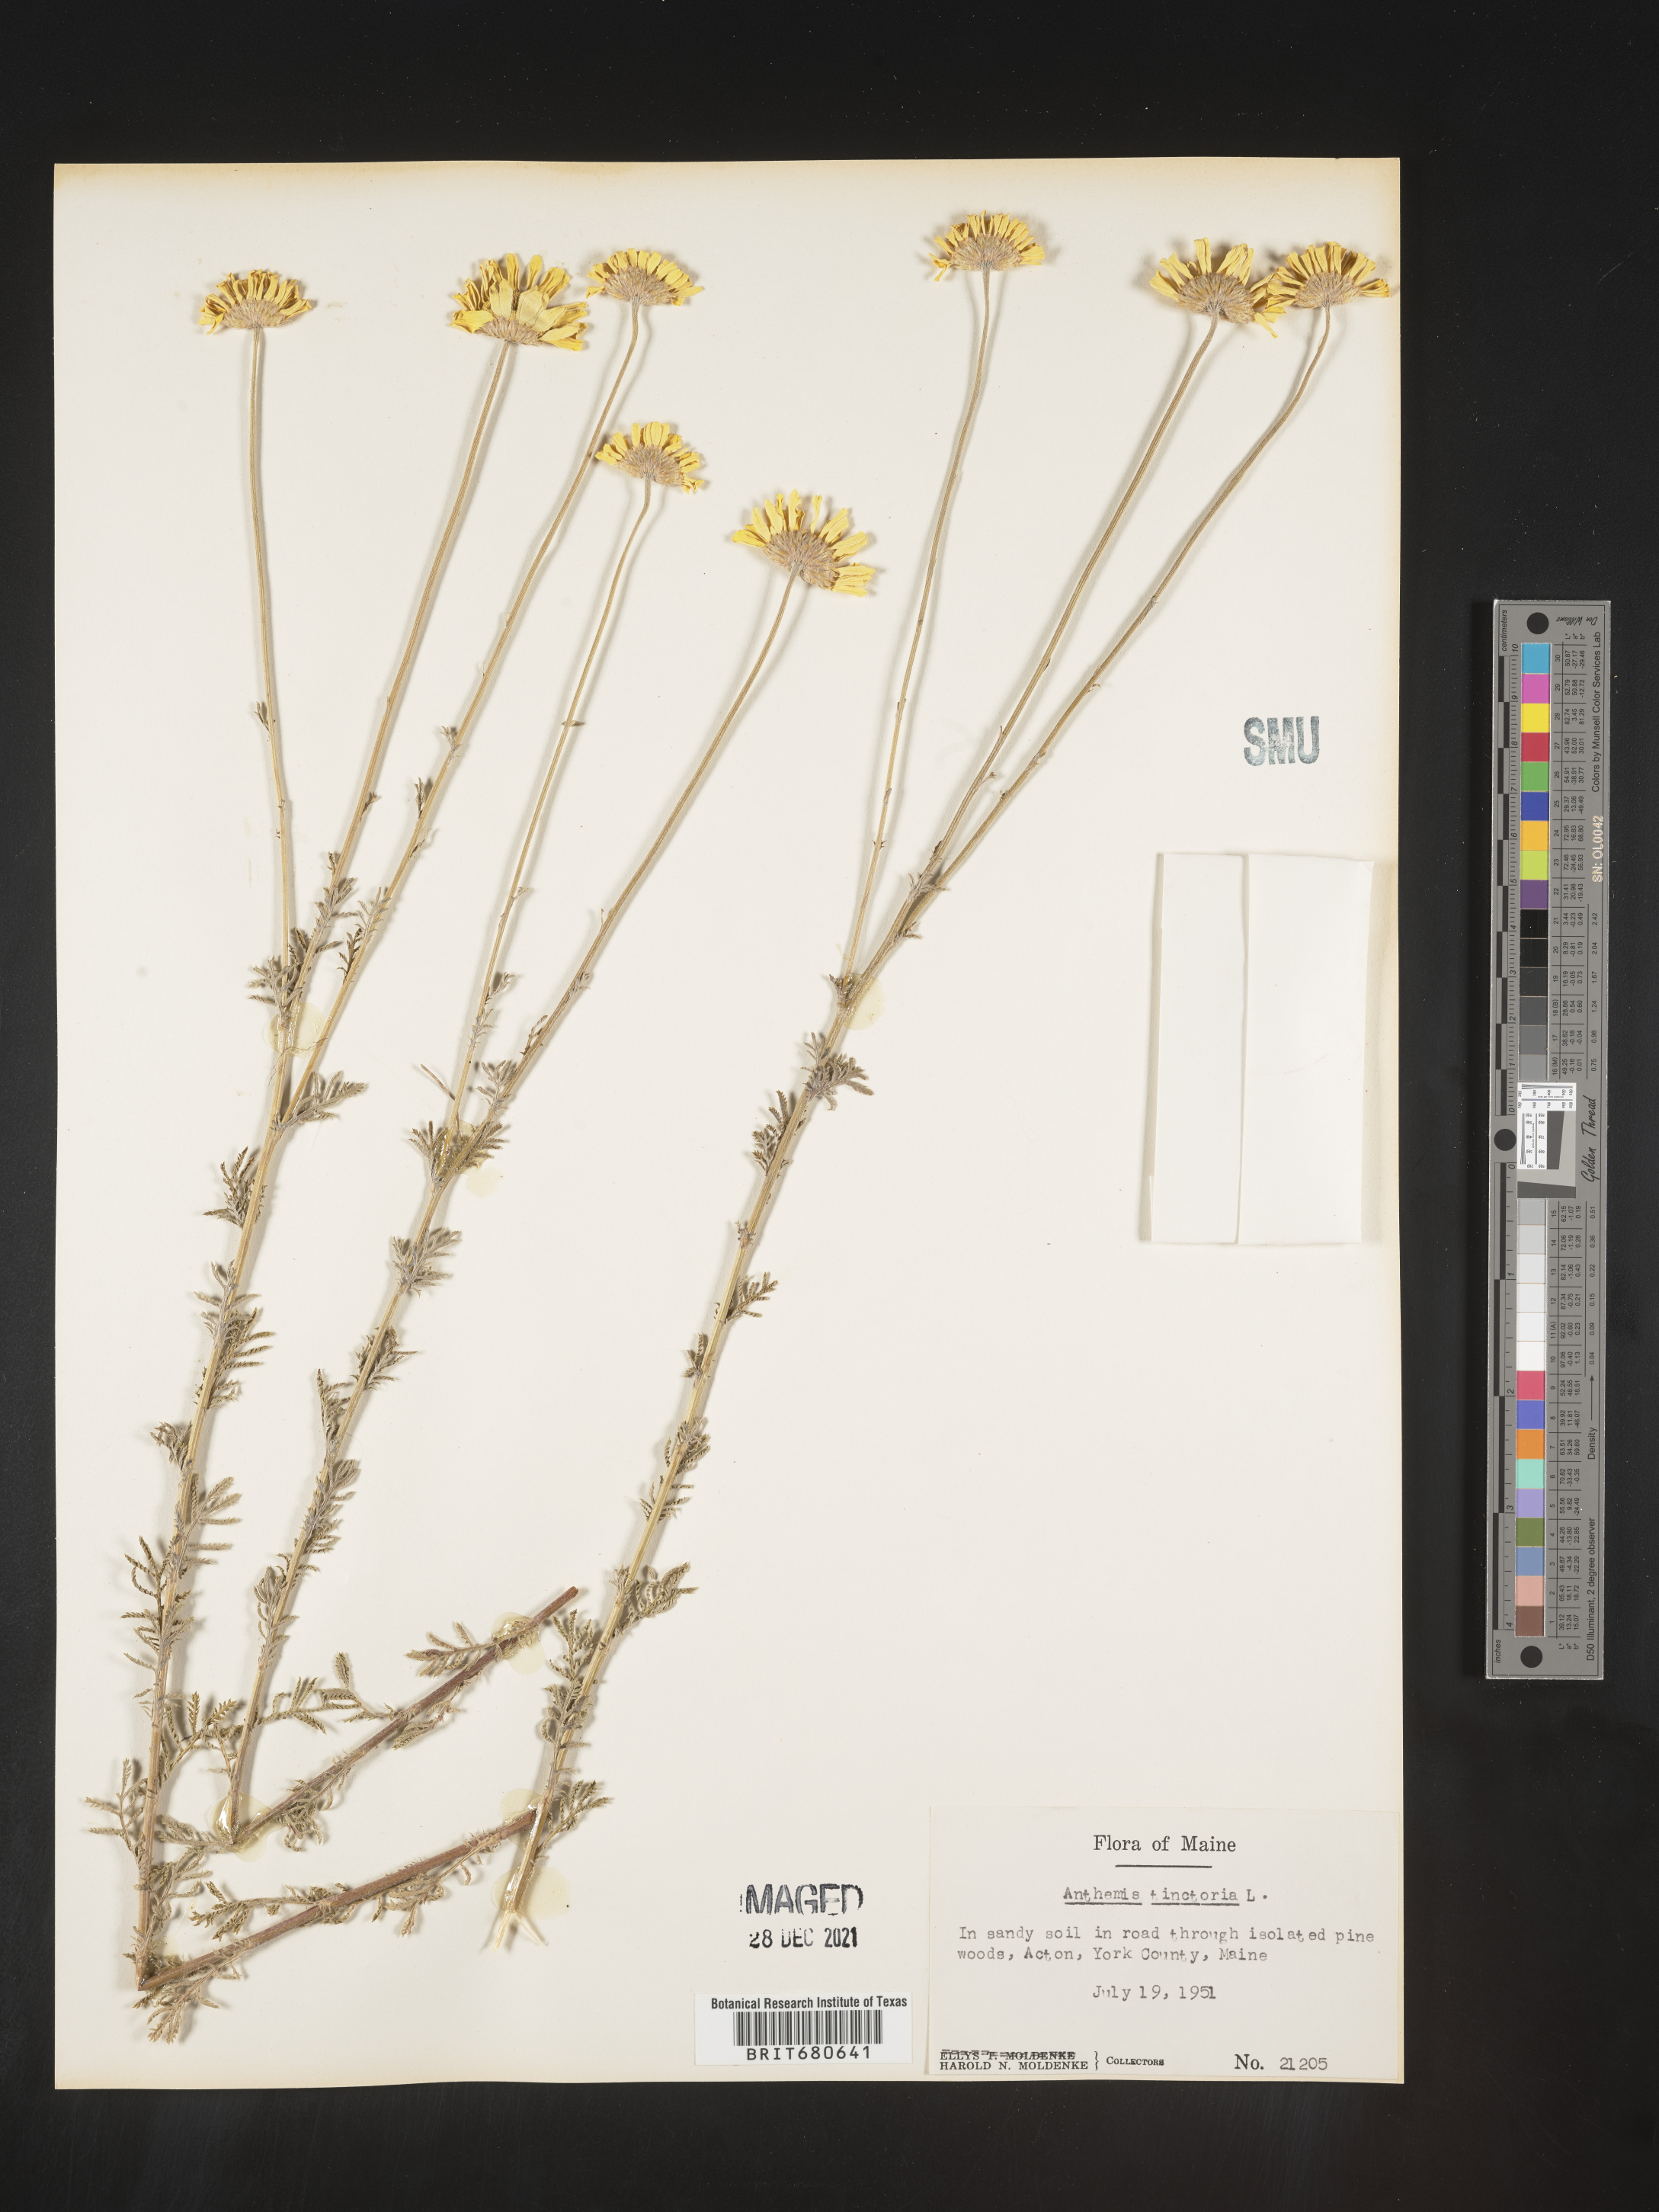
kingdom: Plantae
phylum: Tracheophyta
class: Magnoliopsida
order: Asterales
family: Asteraceae
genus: Anthemis
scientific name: Anthemis
